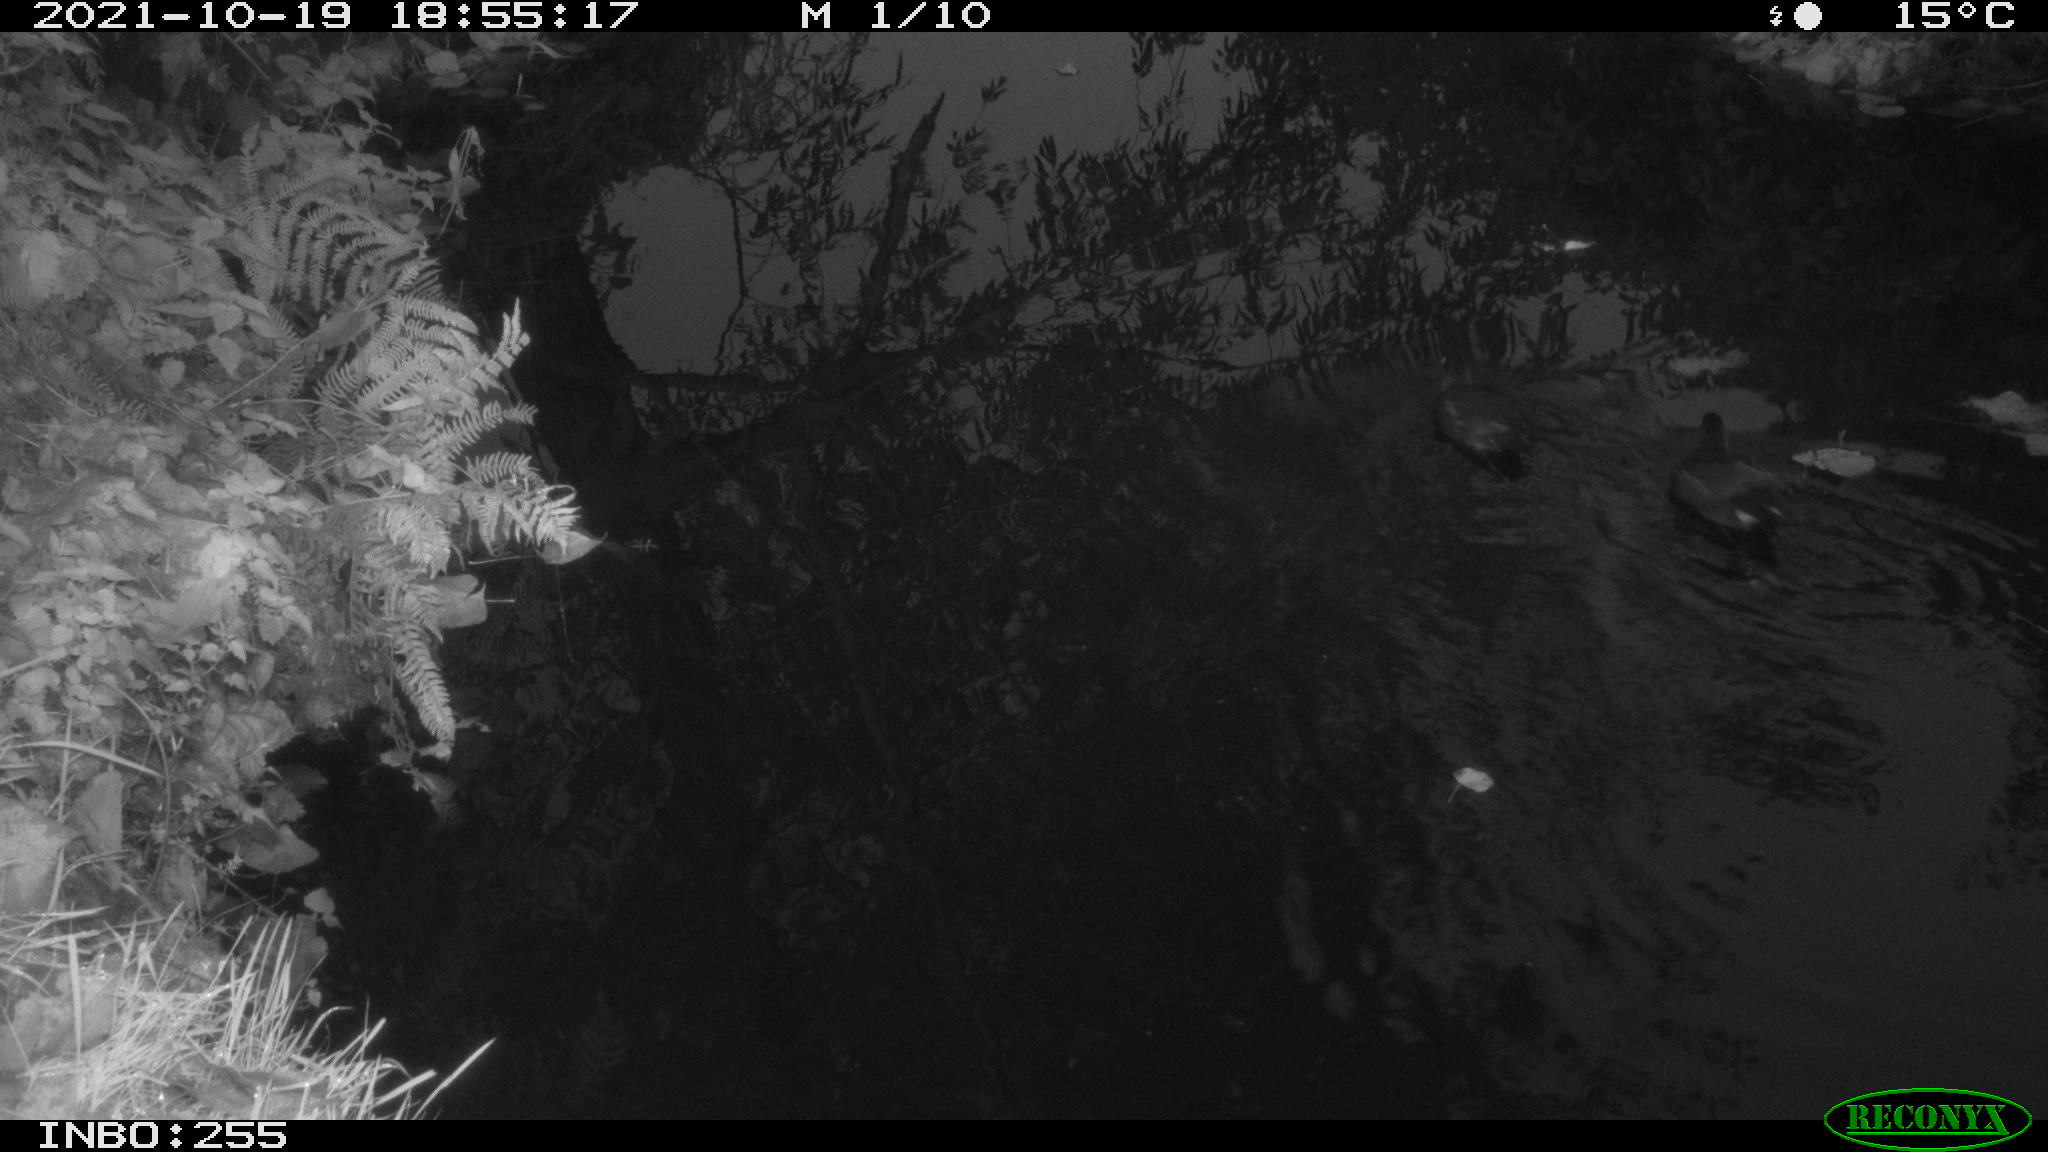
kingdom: Animalia
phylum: Chordata
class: Aves
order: Gruiformes
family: Rallidae
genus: Gallinula
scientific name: Gallinula chloropus
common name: Common moorhen
